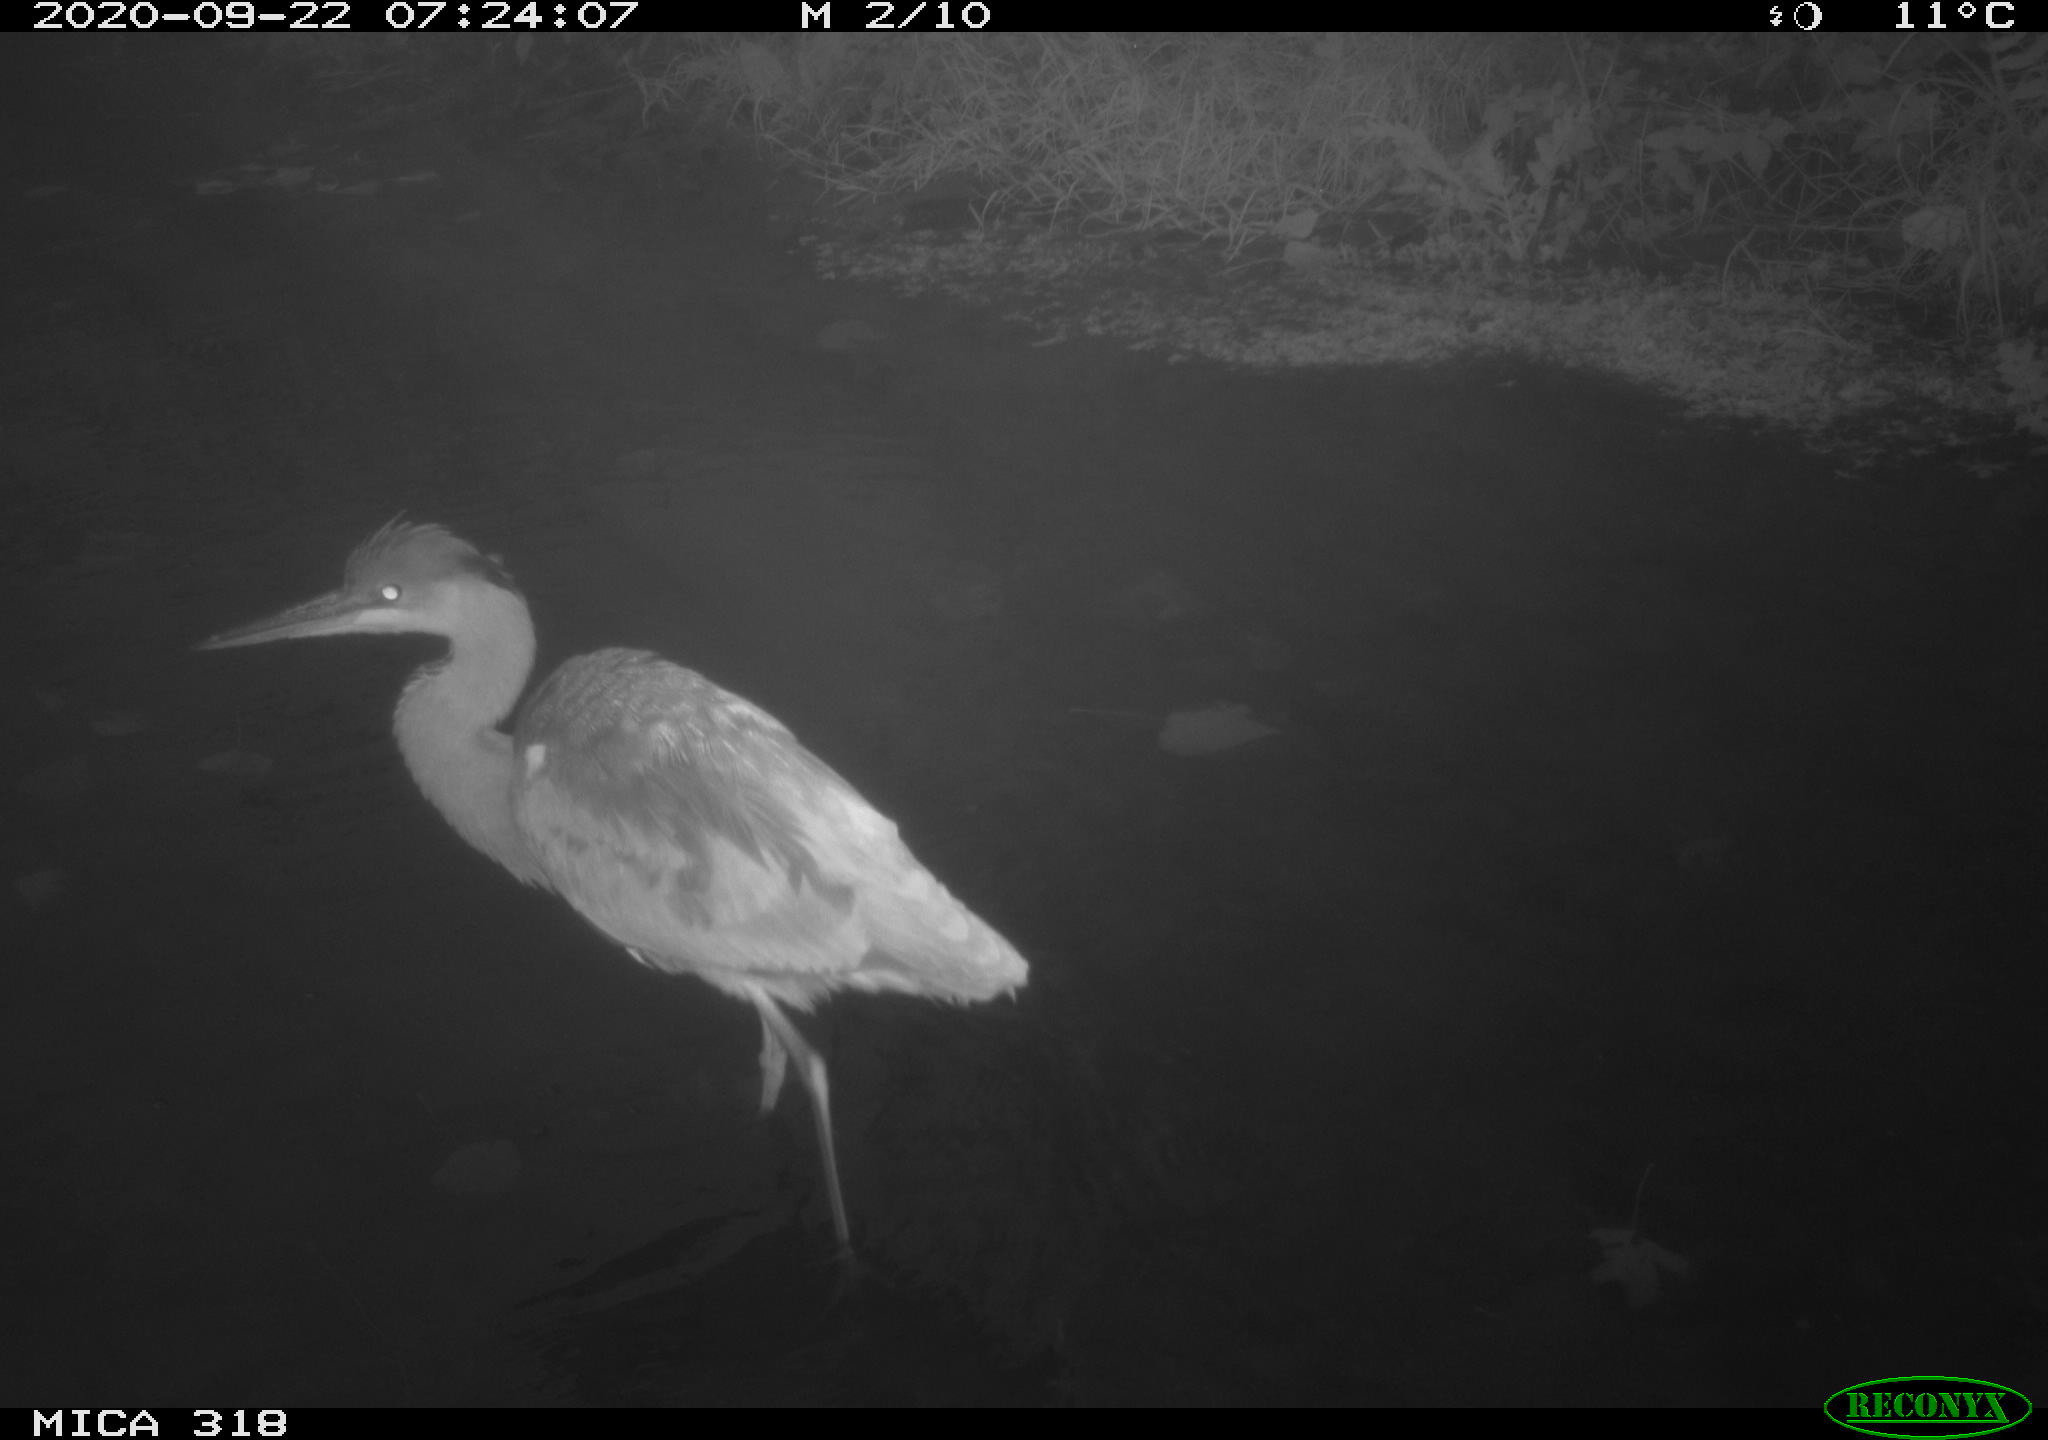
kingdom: Animalia
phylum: Chordata
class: Aves
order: Pelecaniformes
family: Ardeidae
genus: Ardea
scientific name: Ardea cinerea
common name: Grey heron
